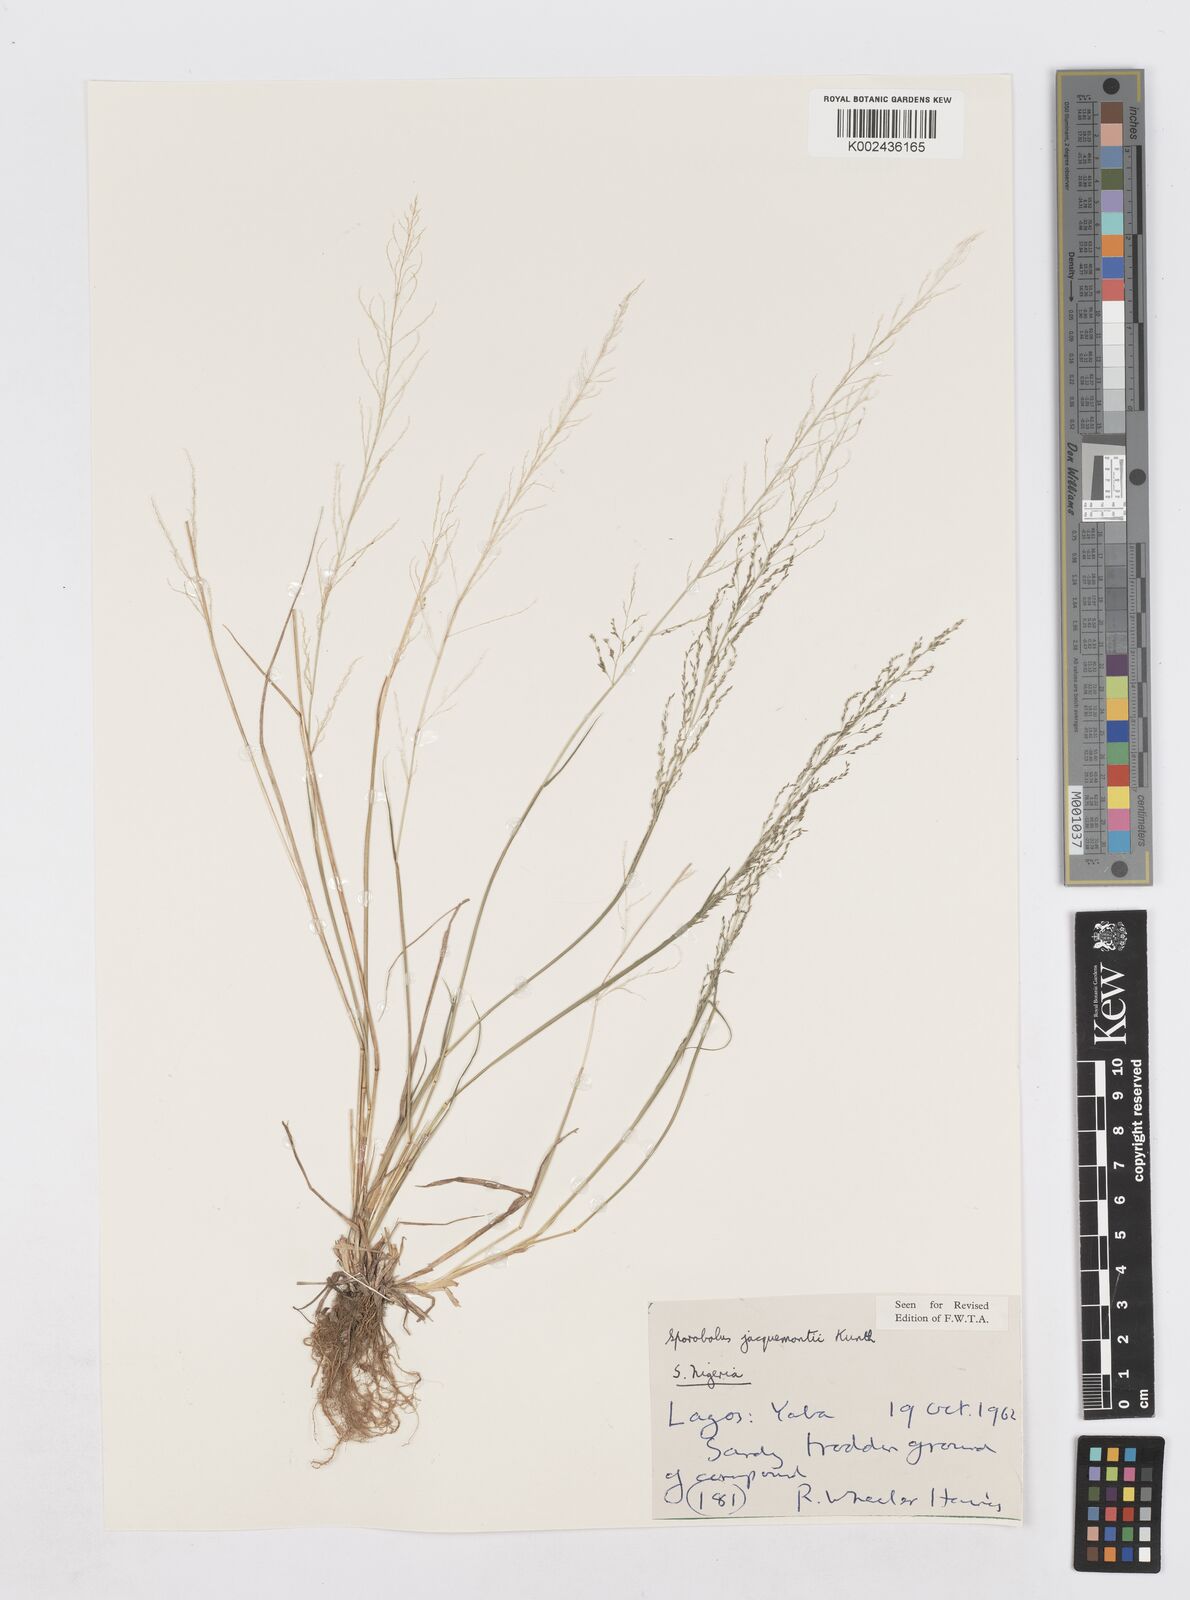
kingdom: Plantae
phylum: Tracheophyta
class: Liliopsida
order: Poales
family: Poaceae
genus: Sporobolus
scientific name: Sporobolus pyramidalis
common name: West indian dropseed
